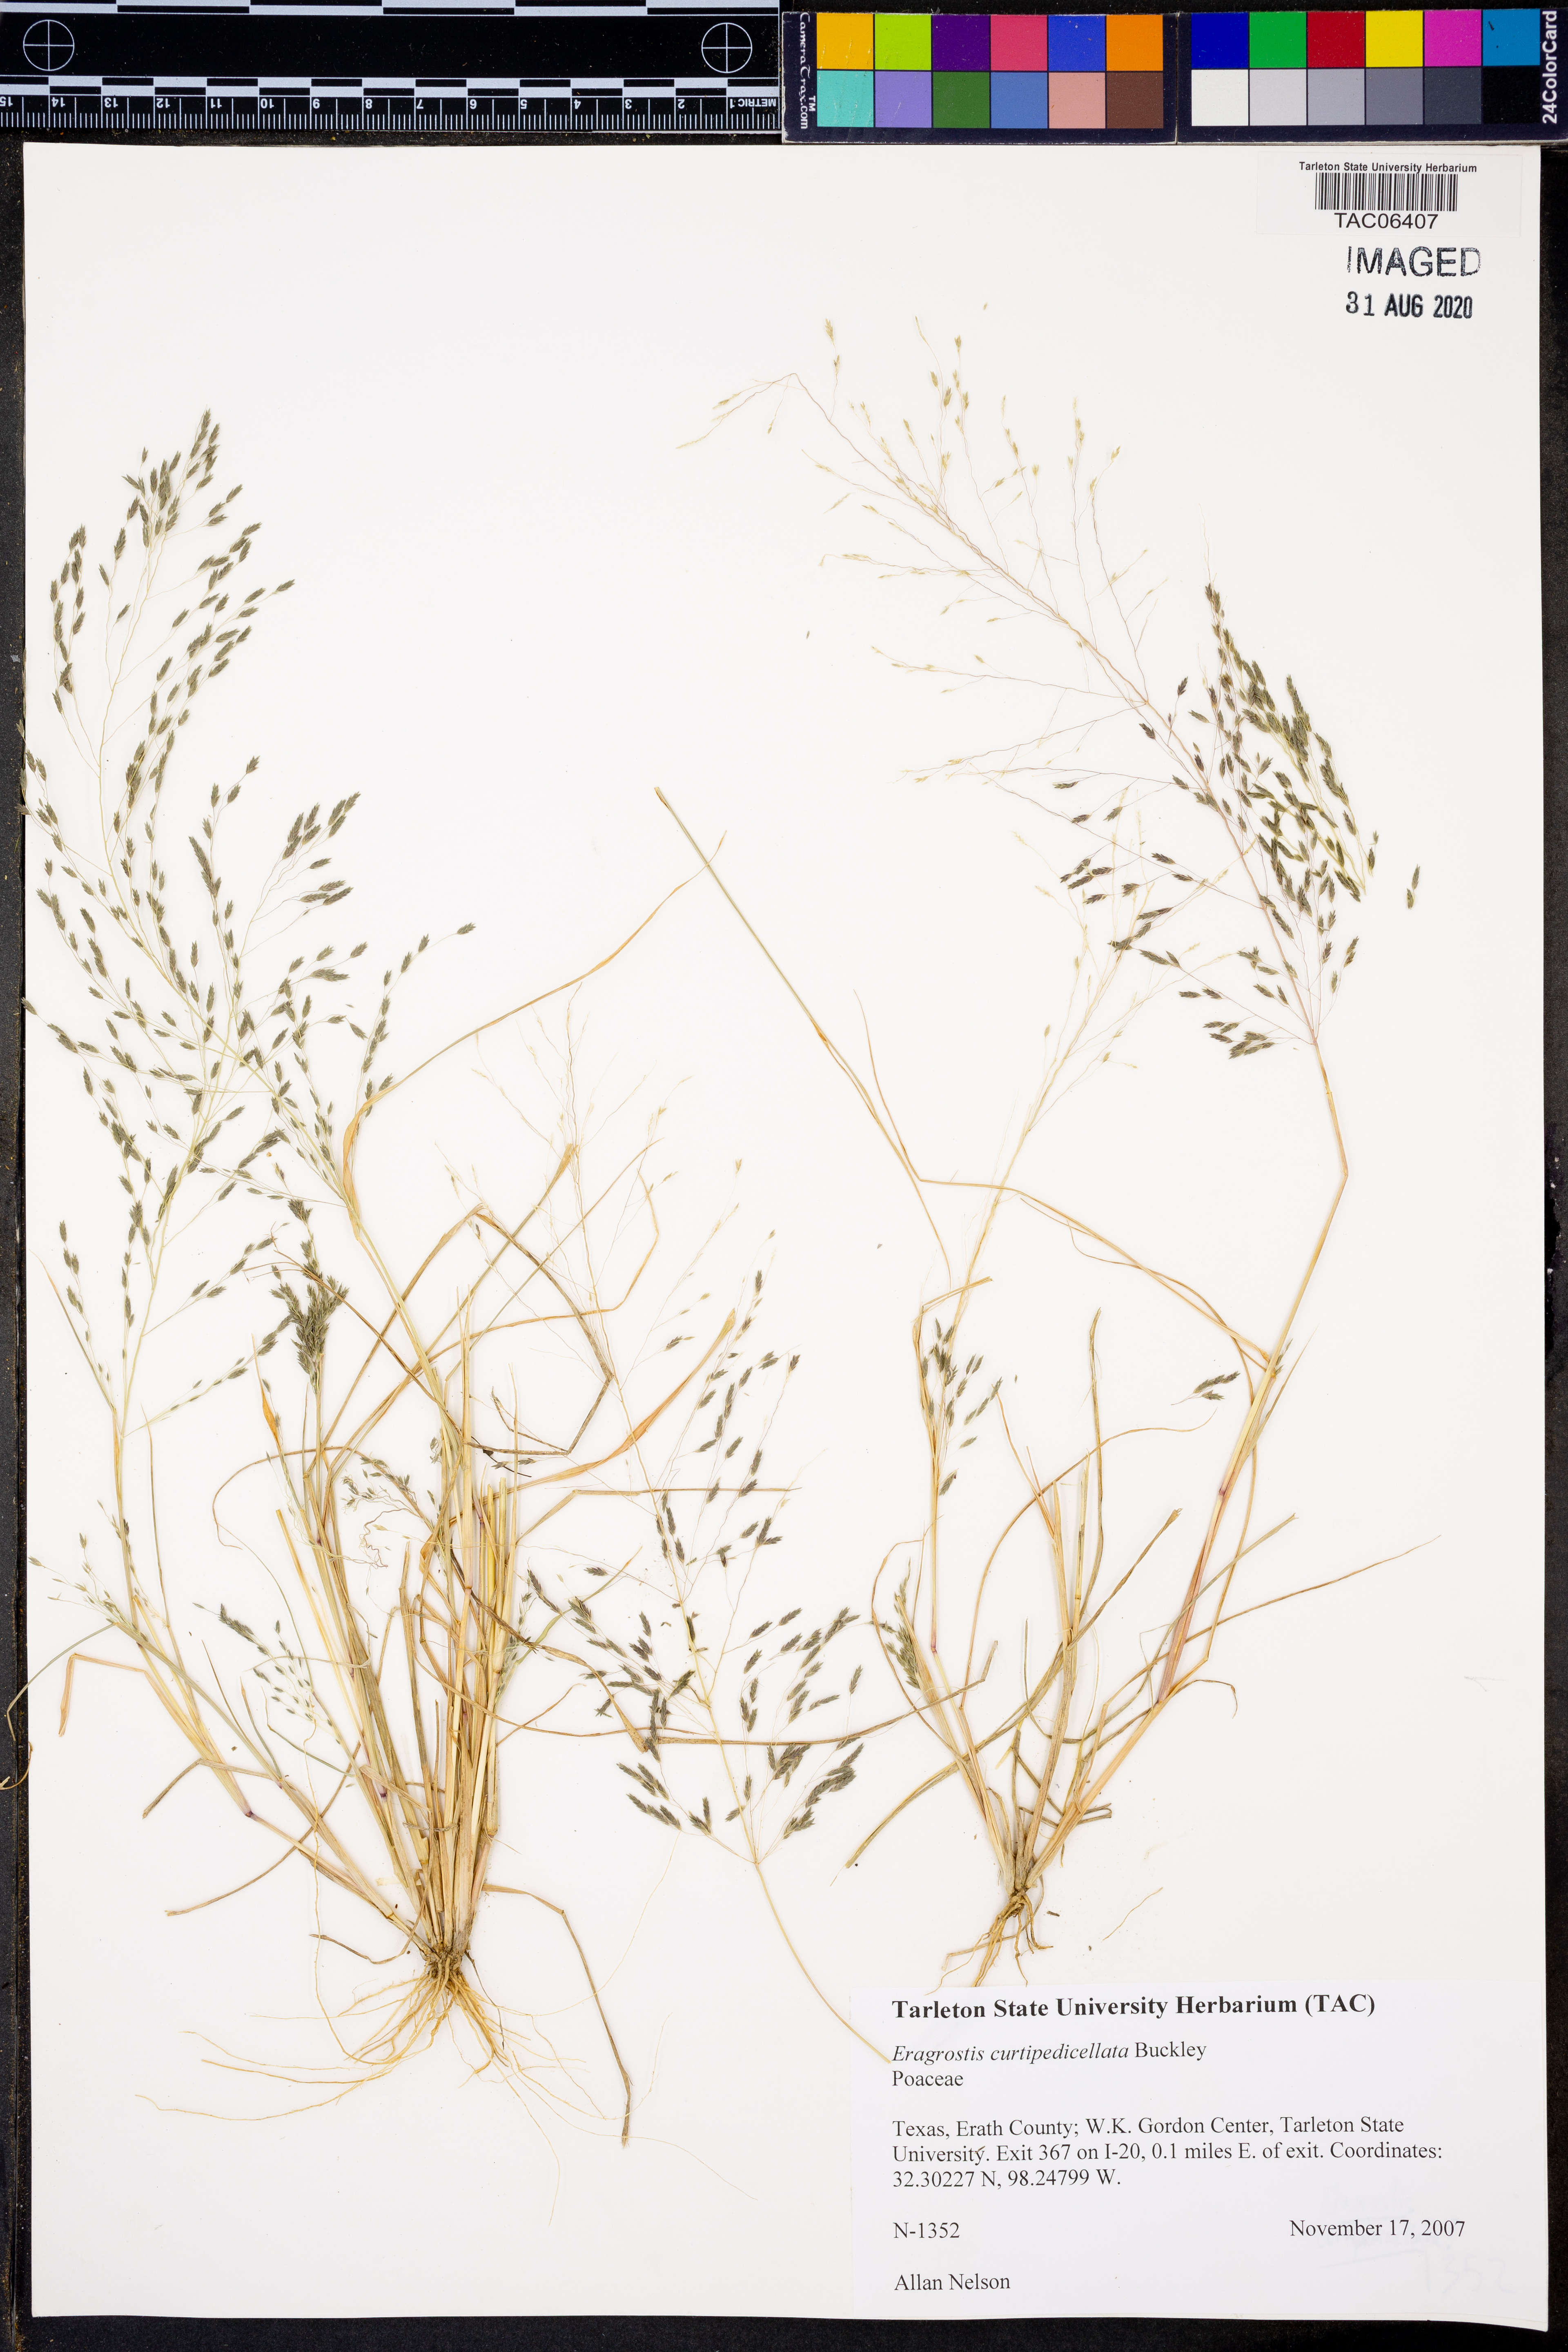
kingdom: Plantae
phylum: Tracheophyta
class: Liliopsida
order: Poales
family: Poaceae
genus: Eragrostis
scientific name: Eragrostis curtipedicellata
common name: Gummy love grass
